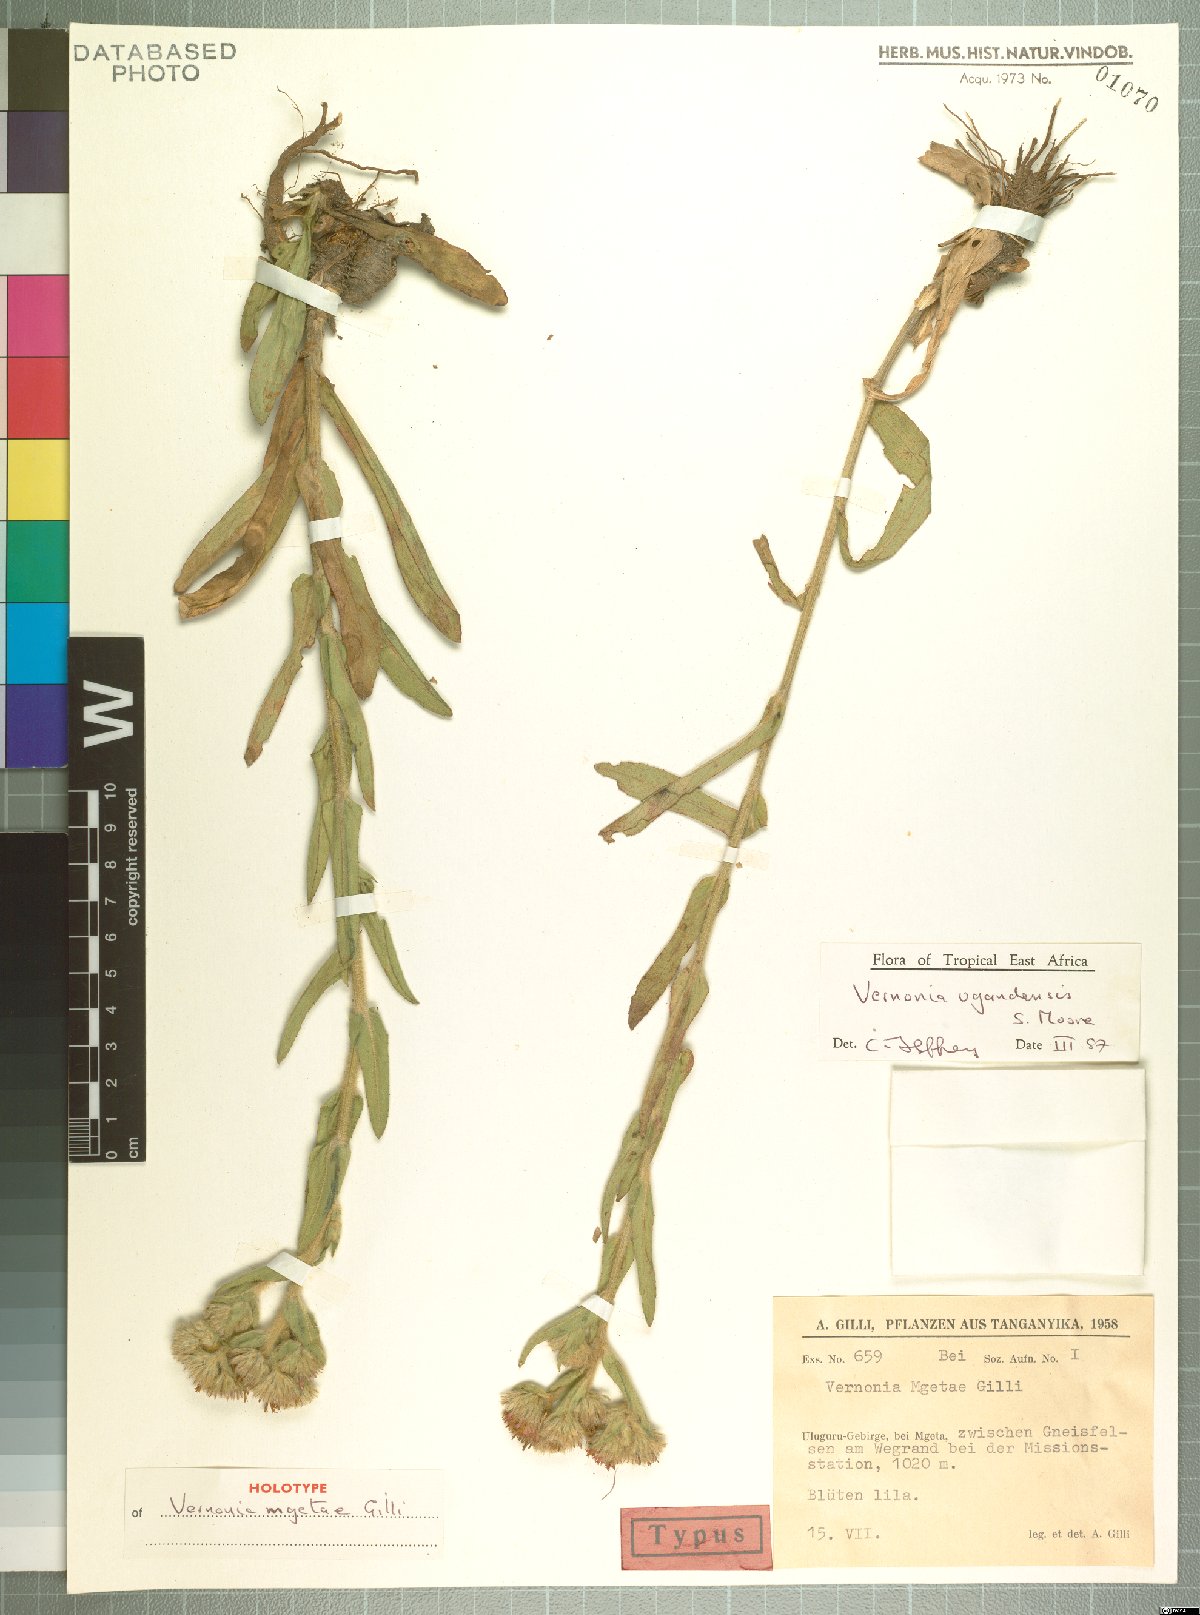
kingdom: Plantae
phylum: Tracheophyta
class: Magnoliopsida
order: Asterales
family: Asteraceae
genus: Vernoniastrum
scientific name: Vernoniastrum ugandense
